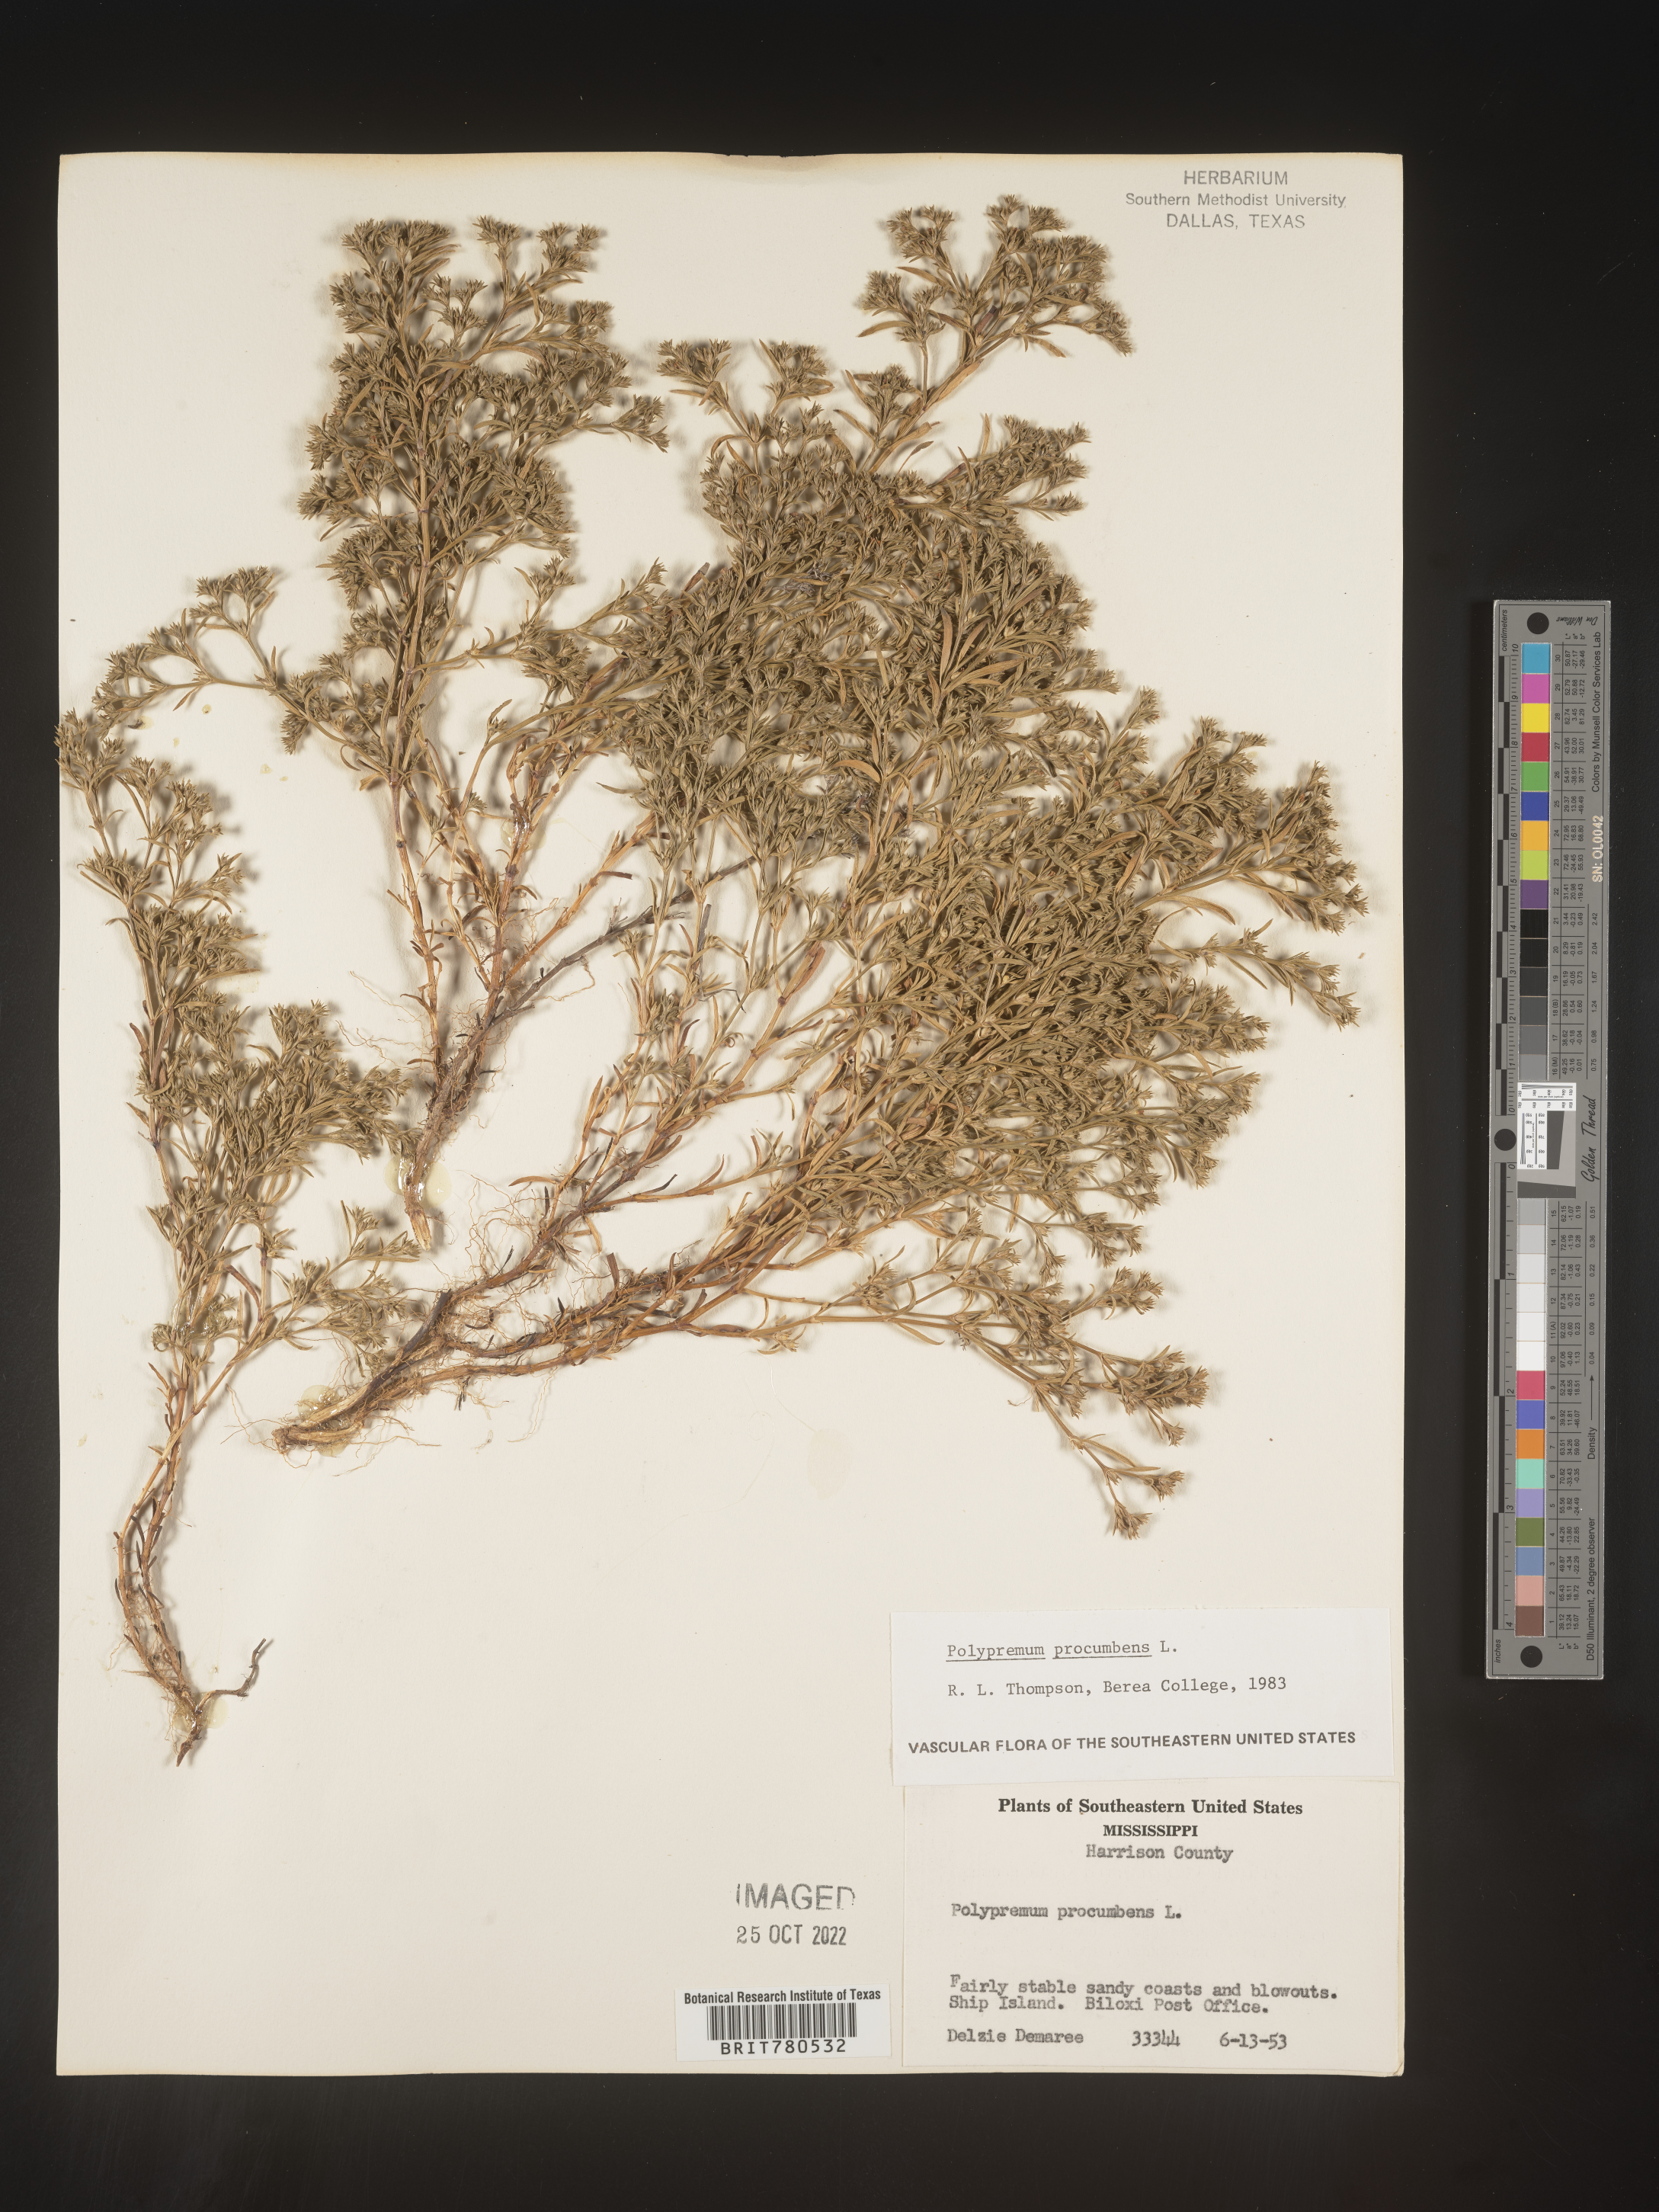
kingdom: Plantae
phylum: Tracheophyta
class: Magnoliopsida
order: Lamiales
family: Tetrachondraceae
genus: Polypremum
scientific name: Polypremum procumbens
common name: Juniper-leaf
